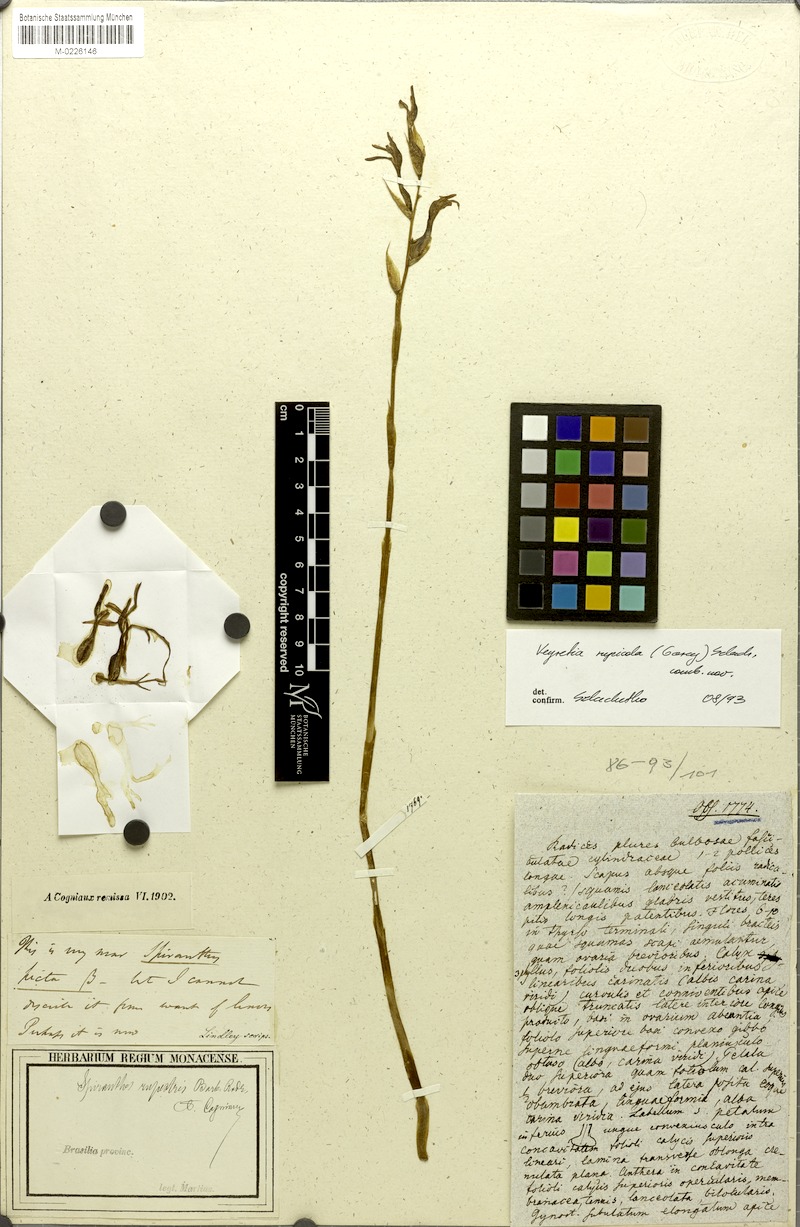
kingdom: Plantae
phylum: Tracheophyta
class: Liliopsida
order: Asparagales
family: Orchidaceae
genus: Veyretia
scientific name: Veyretia rupicola
